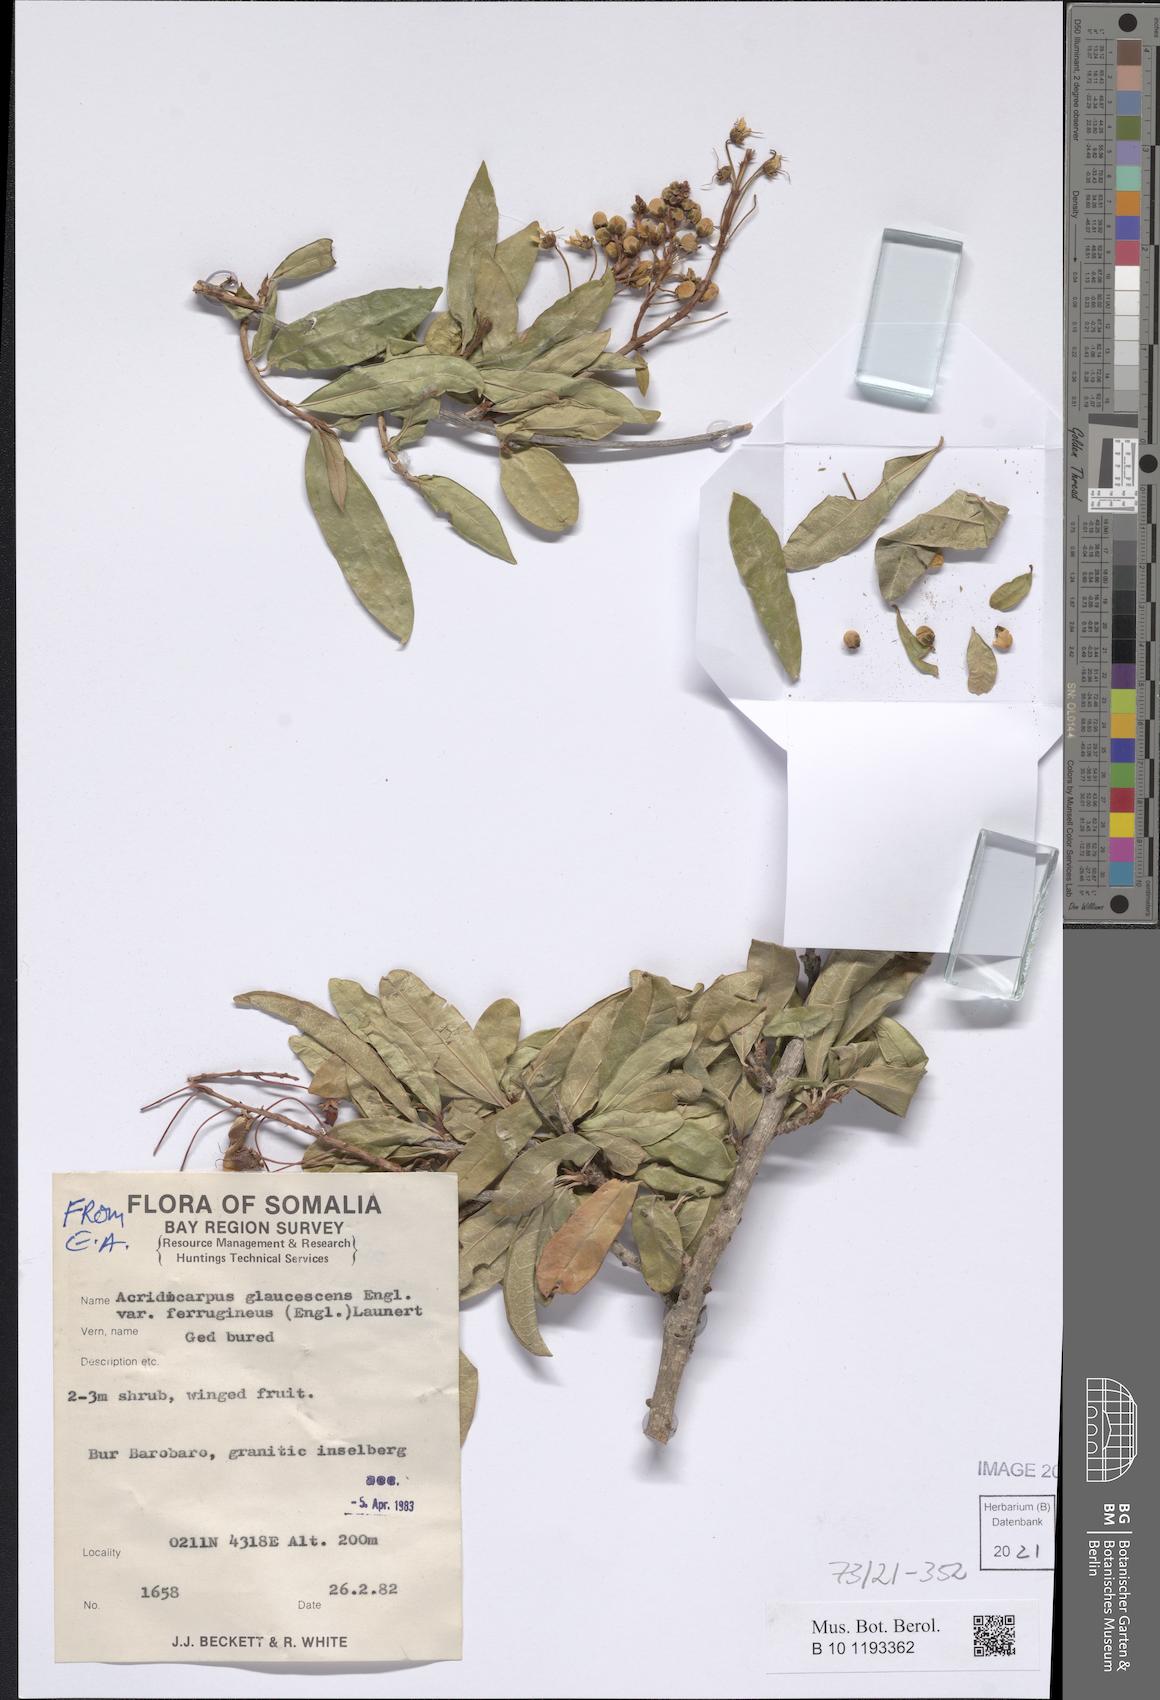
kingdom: Plantae
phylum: Tracheophyta
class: Magnoliopsida
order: Malpighiales
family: Malpighiaceae
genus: Acridocarpus
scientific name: Acridocarpus glaucescens
